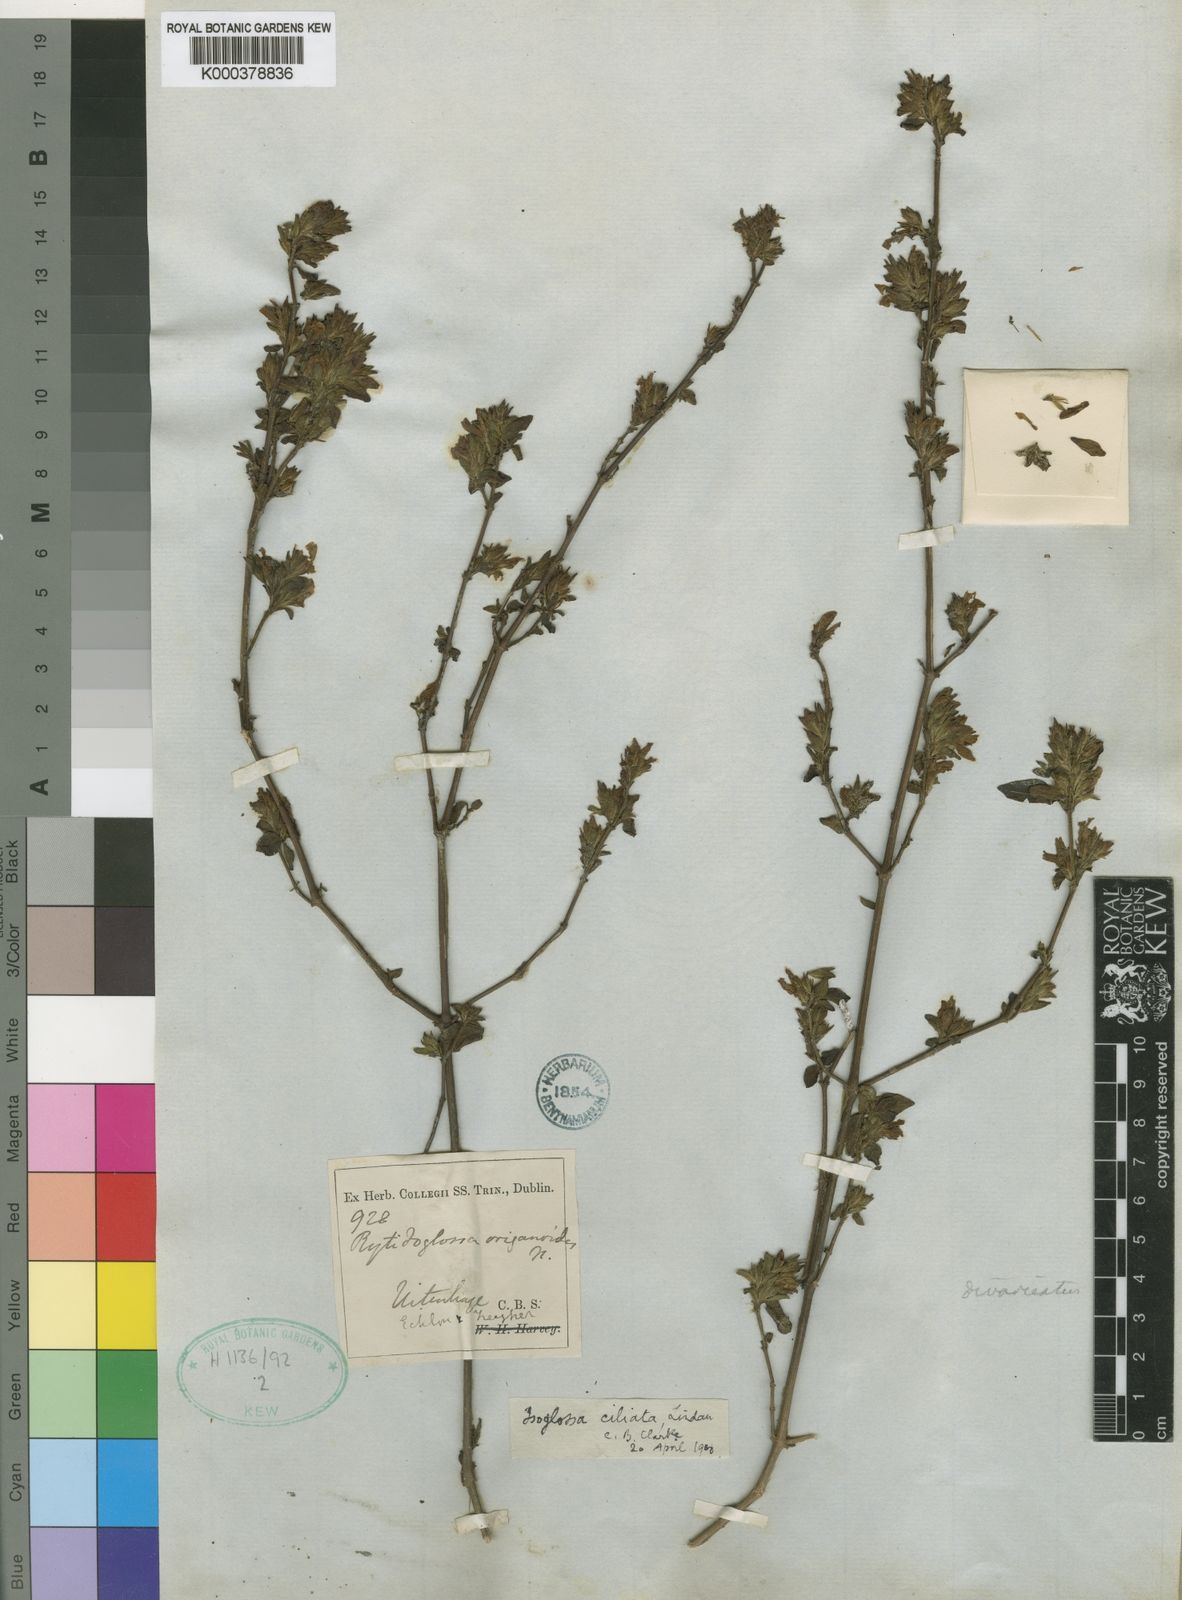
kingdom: Plantae
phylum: Tracheophyta
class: Magnoliopsida
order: Lamiales
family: Acanthaceae
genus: Isoglossa
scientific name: Isoglossa
